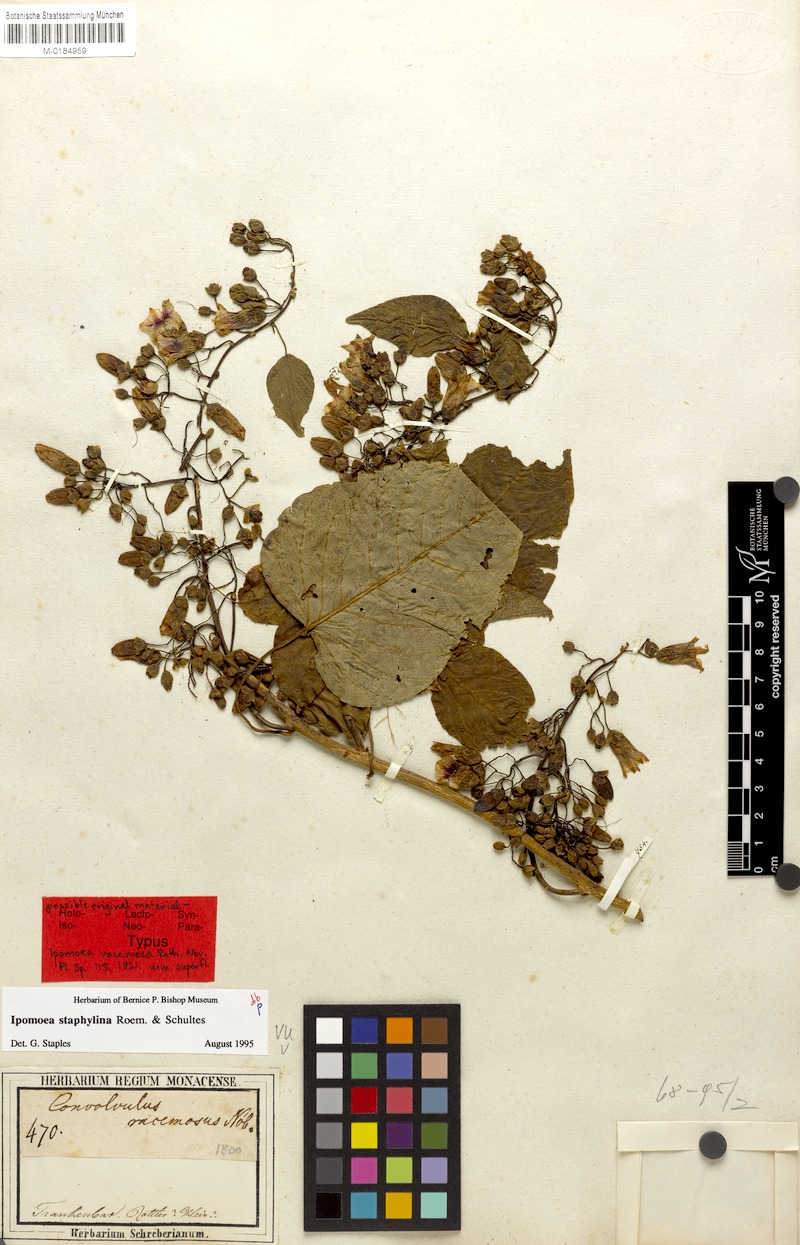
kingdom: Plantae
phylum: Tracheophyta
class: Magnoliopsida
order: Solanales
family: Convolvulaceae
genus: Ipomoea
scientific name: Ipomoea staphylina
